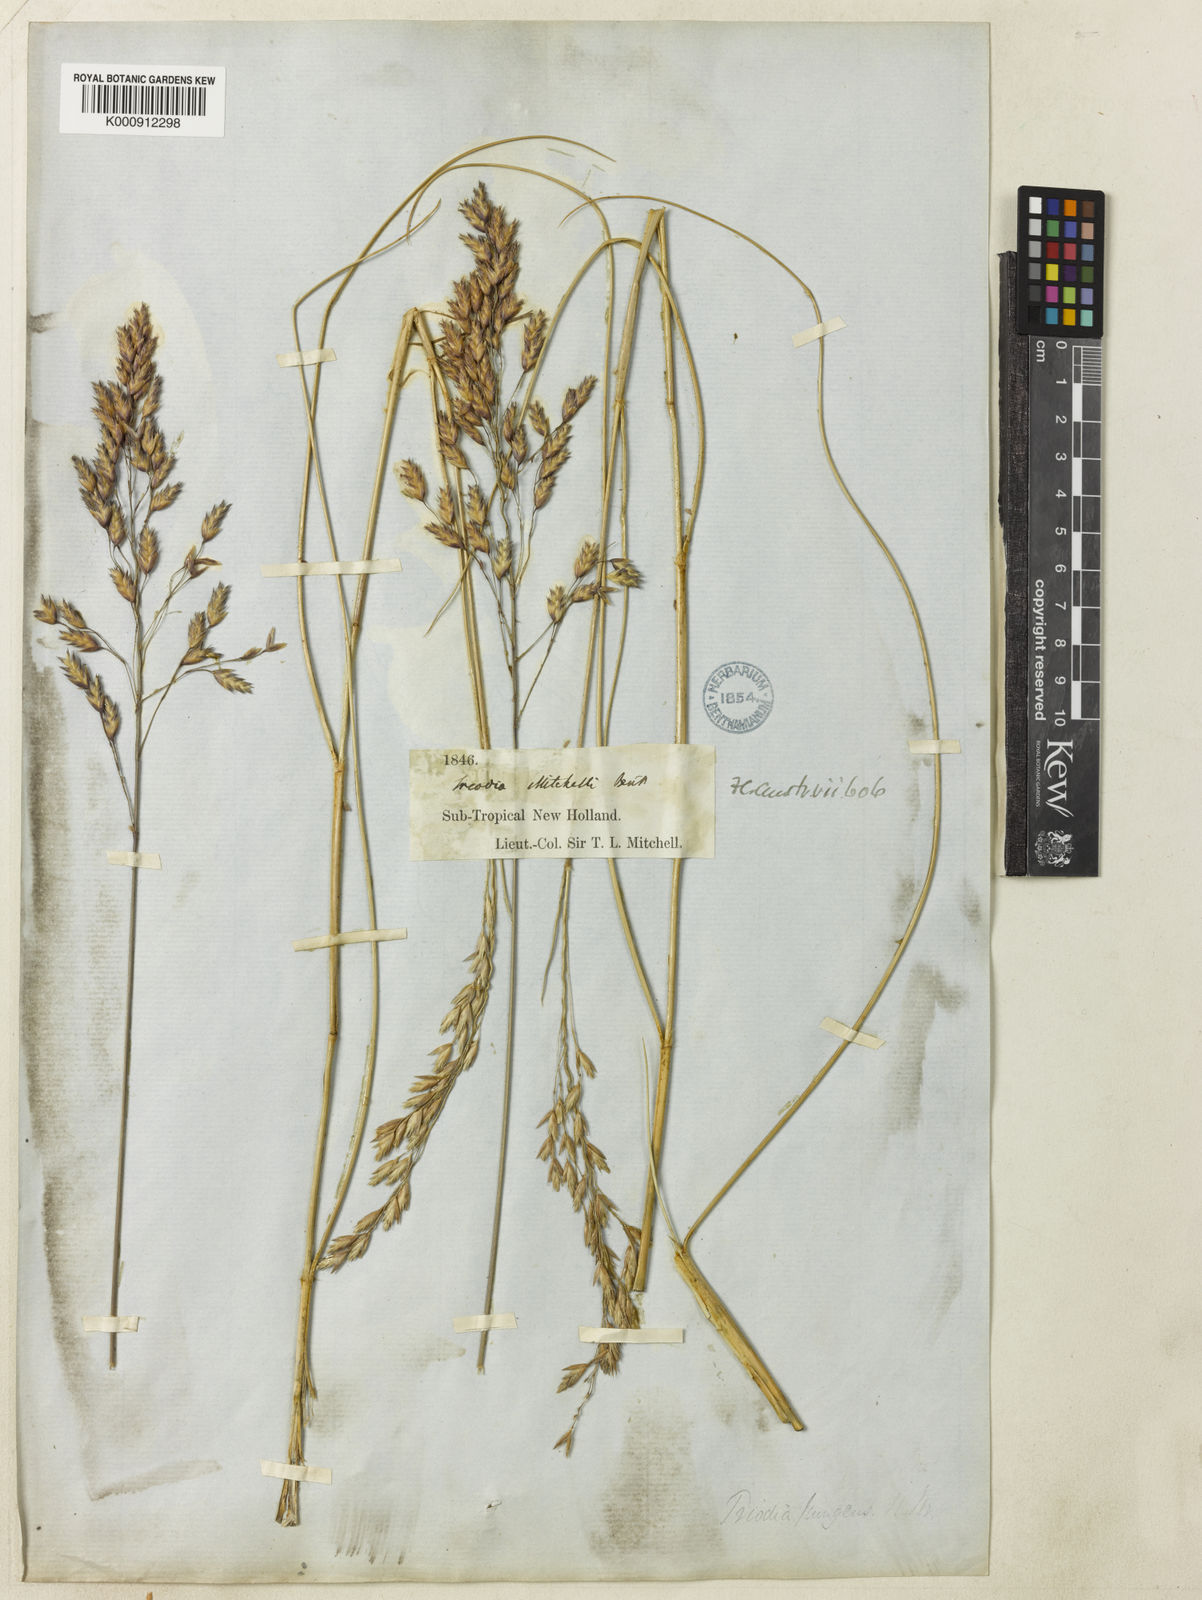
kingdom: Plantae
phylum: Tracheophyta
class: Liliopsida
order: Poales
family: Poaceae
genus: Triodia
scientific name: Triodia mitchellii
